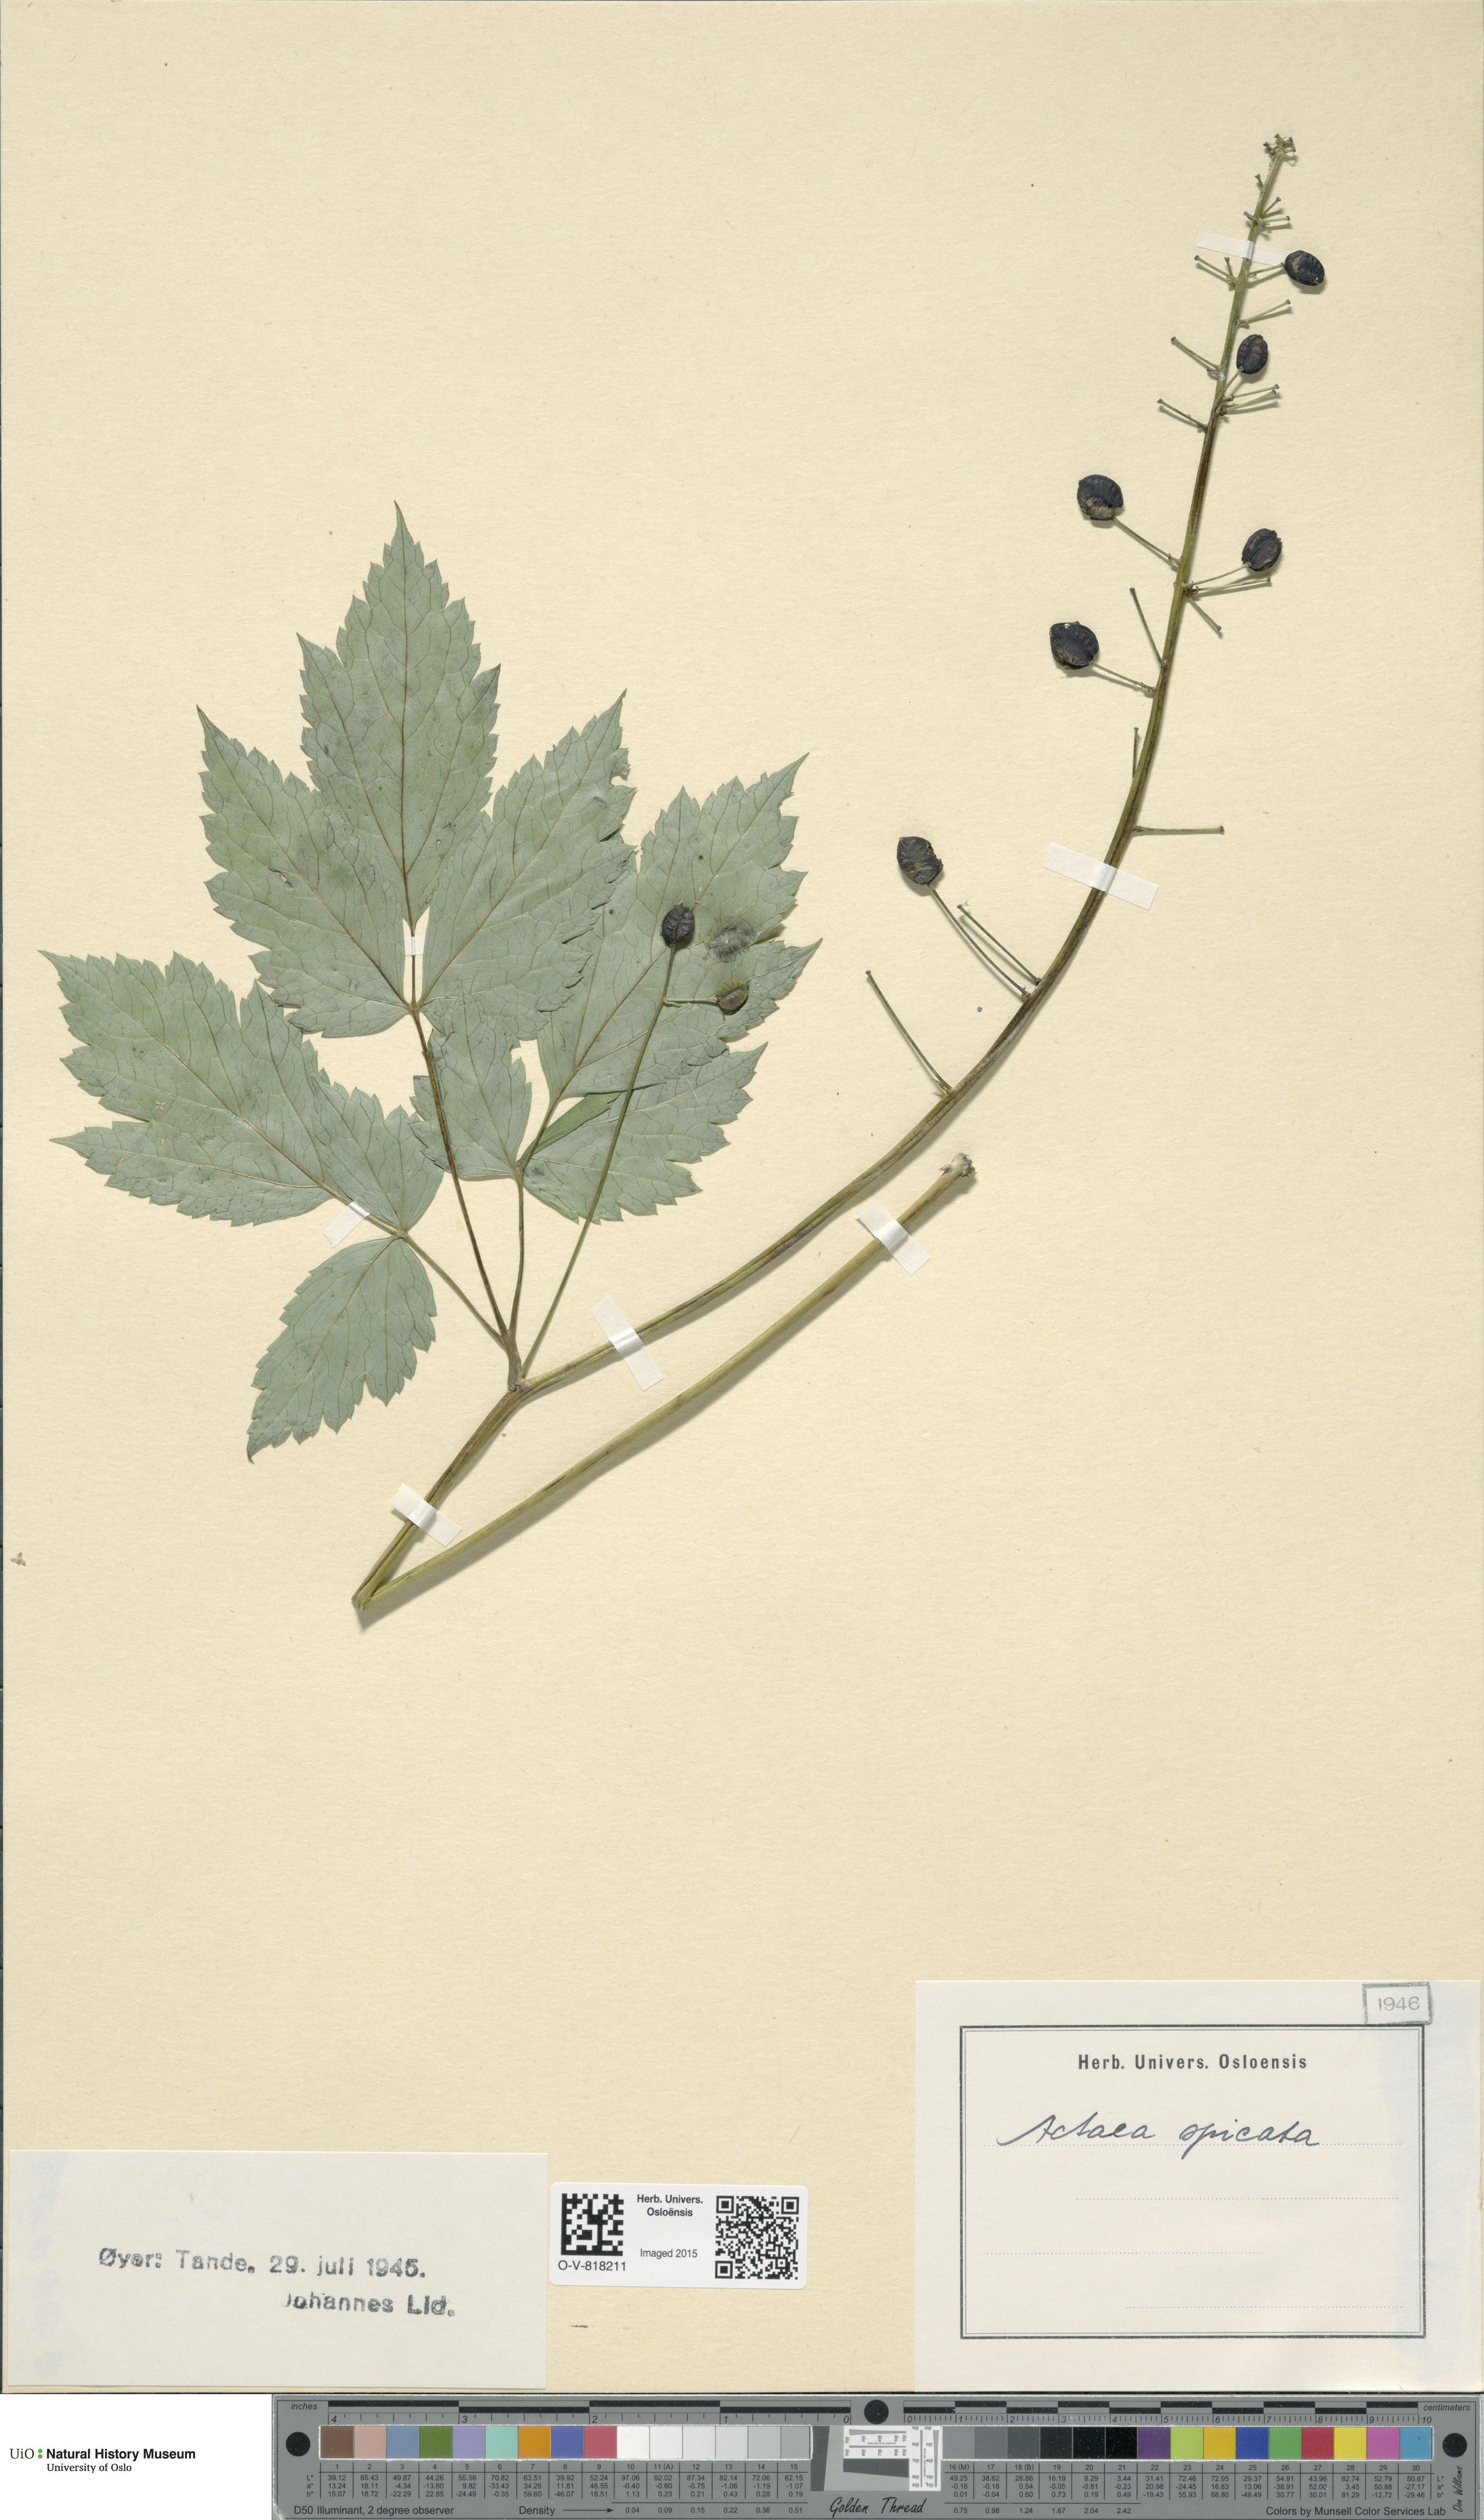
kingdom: Plantae
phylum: Tracheophyta
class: Magnoliopsida
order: Ranunculales
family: Ranunculaceae
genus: Actaea
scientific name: Actaea spicata
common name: Baneberry
